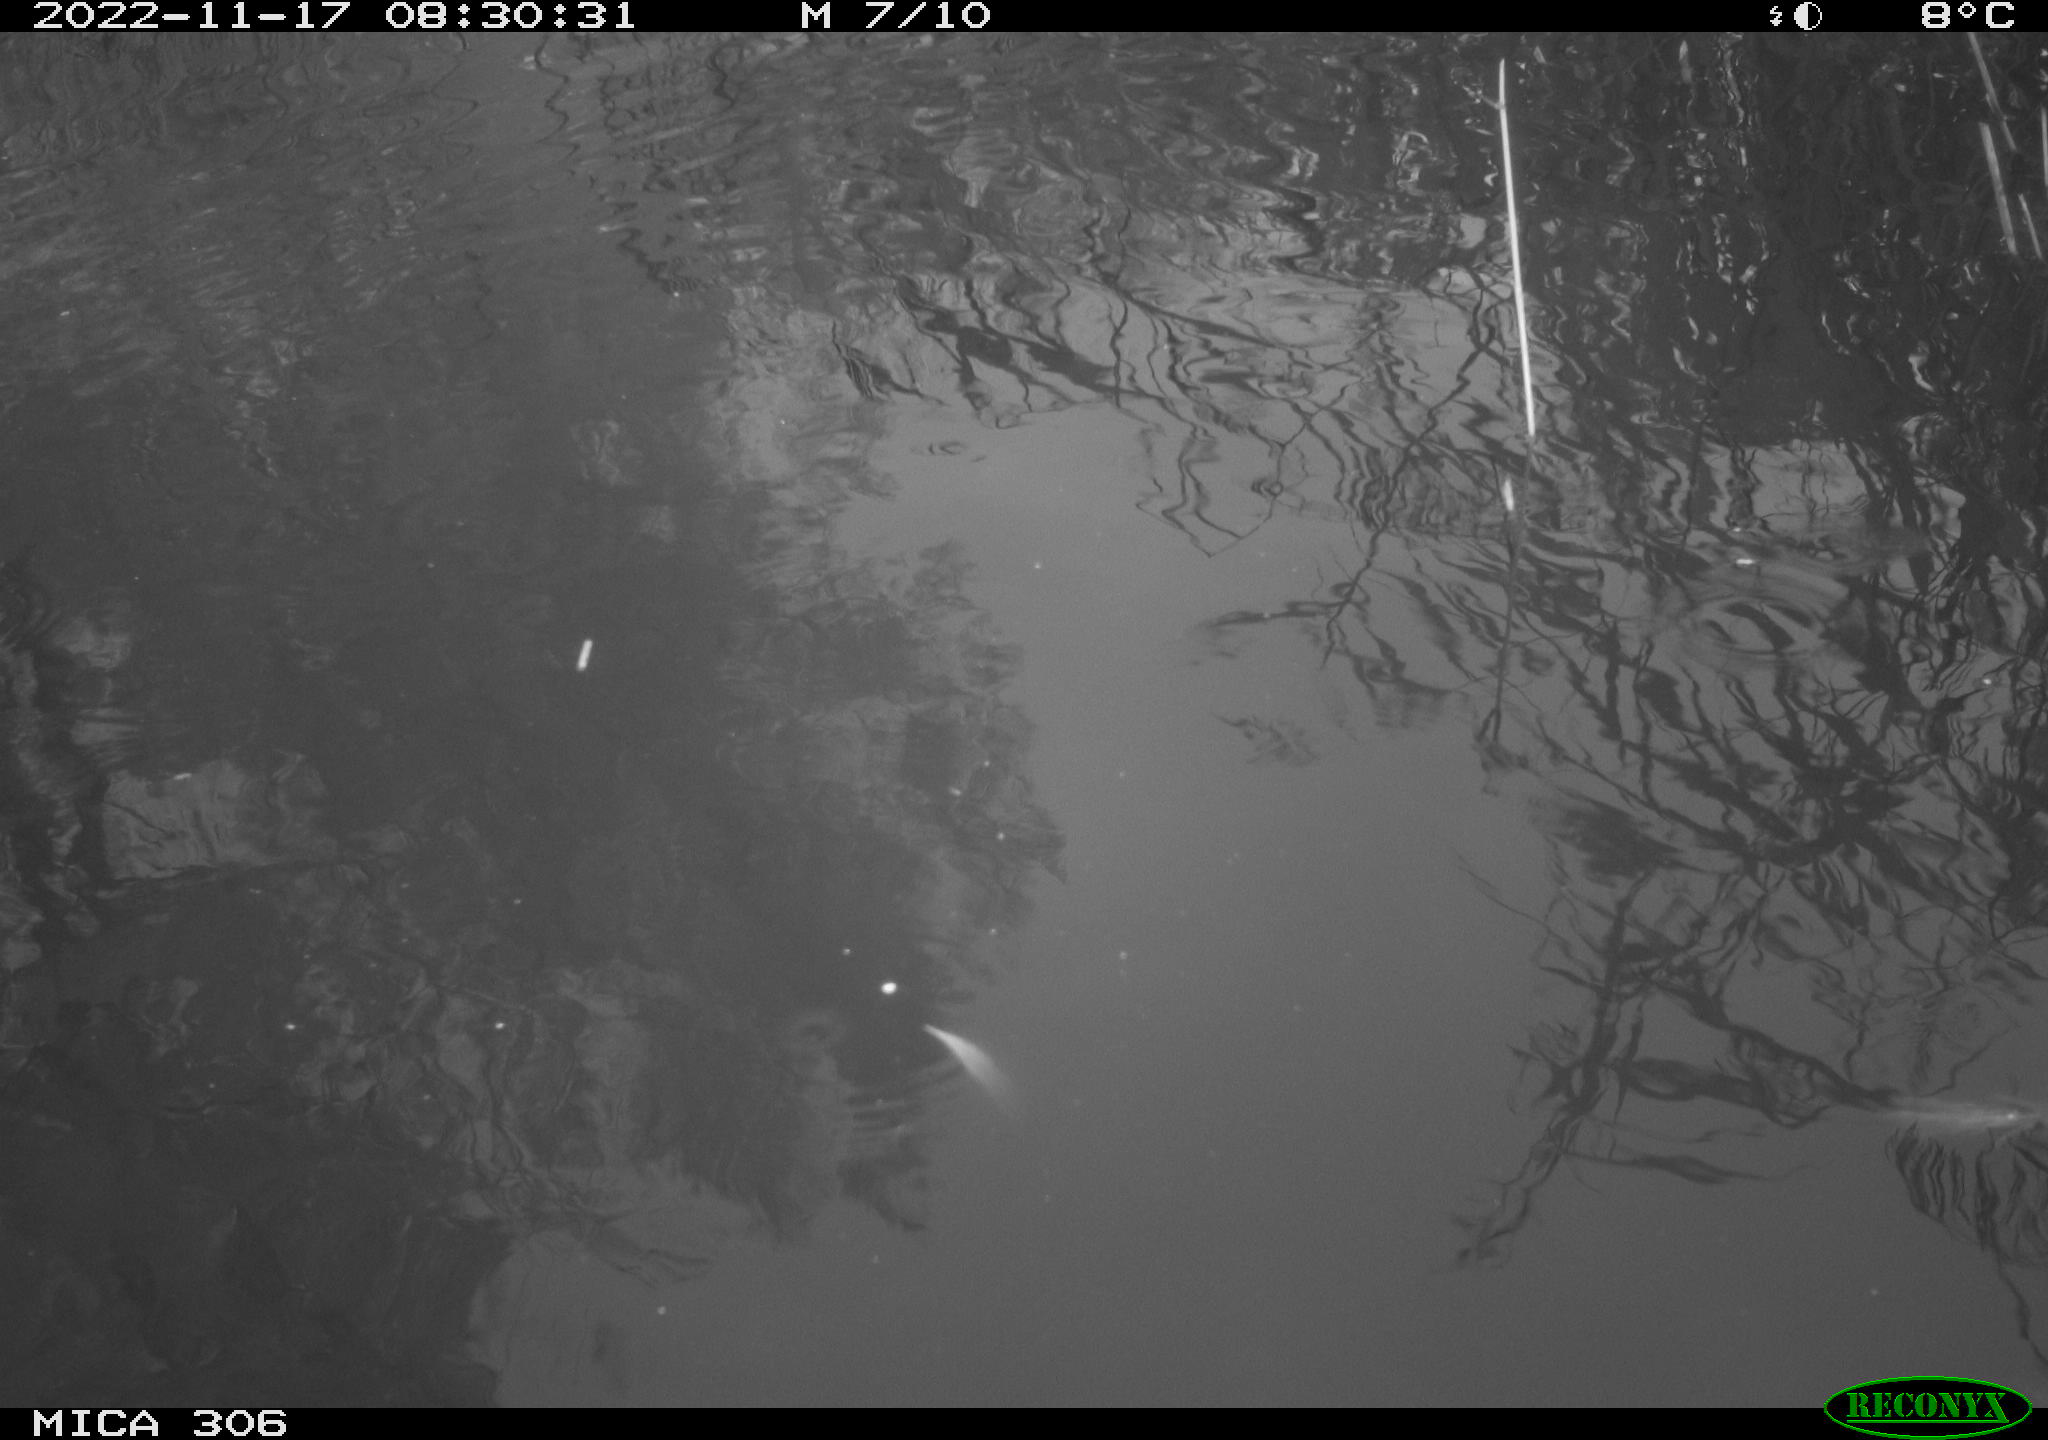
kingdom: Animalia
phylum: Chordata
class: Aves
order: Gruiformes
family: Rallidae
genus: Gallinula
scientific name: Gallinula chloropus
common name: Common moorhen
